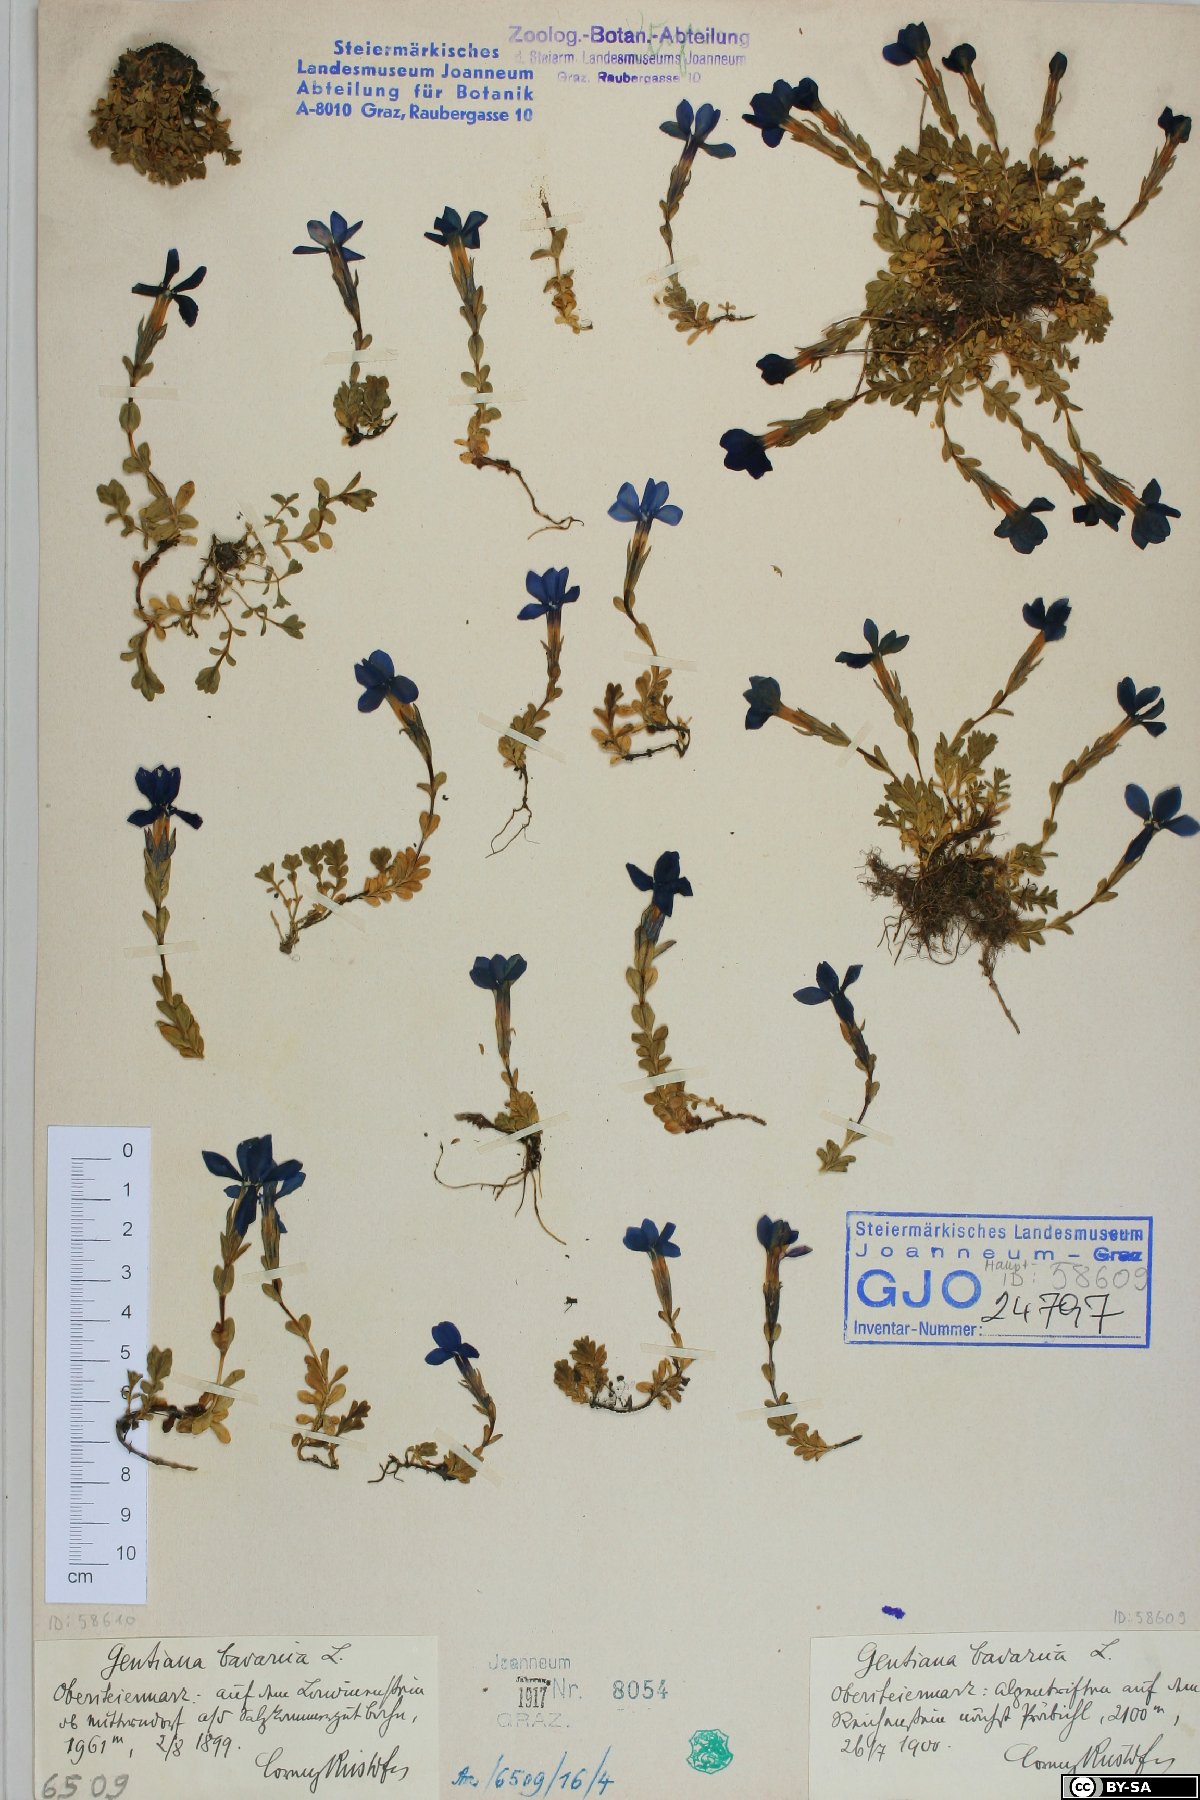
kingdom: Plantae
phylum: Tracheophyta
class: Magnoliopsida
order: Gentianales
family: Gentianaceae
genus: Gentiana
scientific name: Gentiana bavarica
